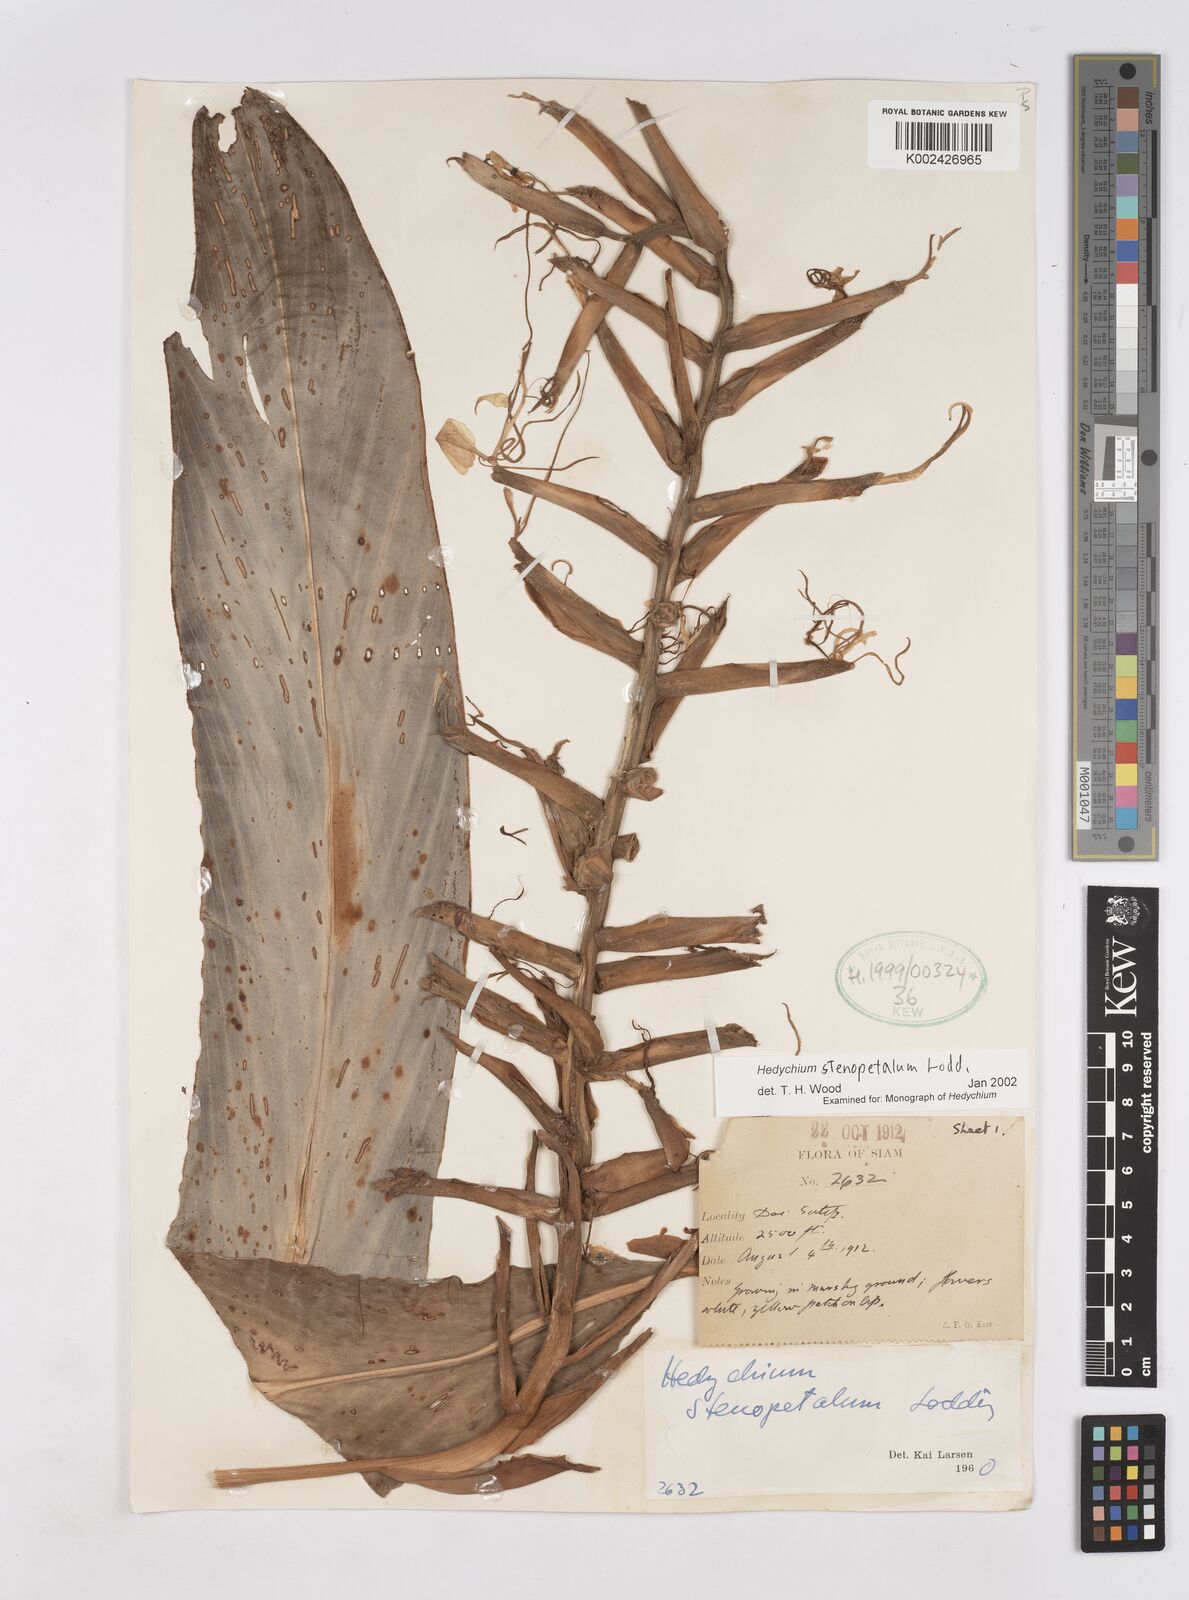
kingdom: Plantae
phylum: Tracheophyta
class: Liliopsida
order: Zingiberales
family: Zingiberaceae
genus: Hedychium
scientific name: Hedychium stenopetalum
